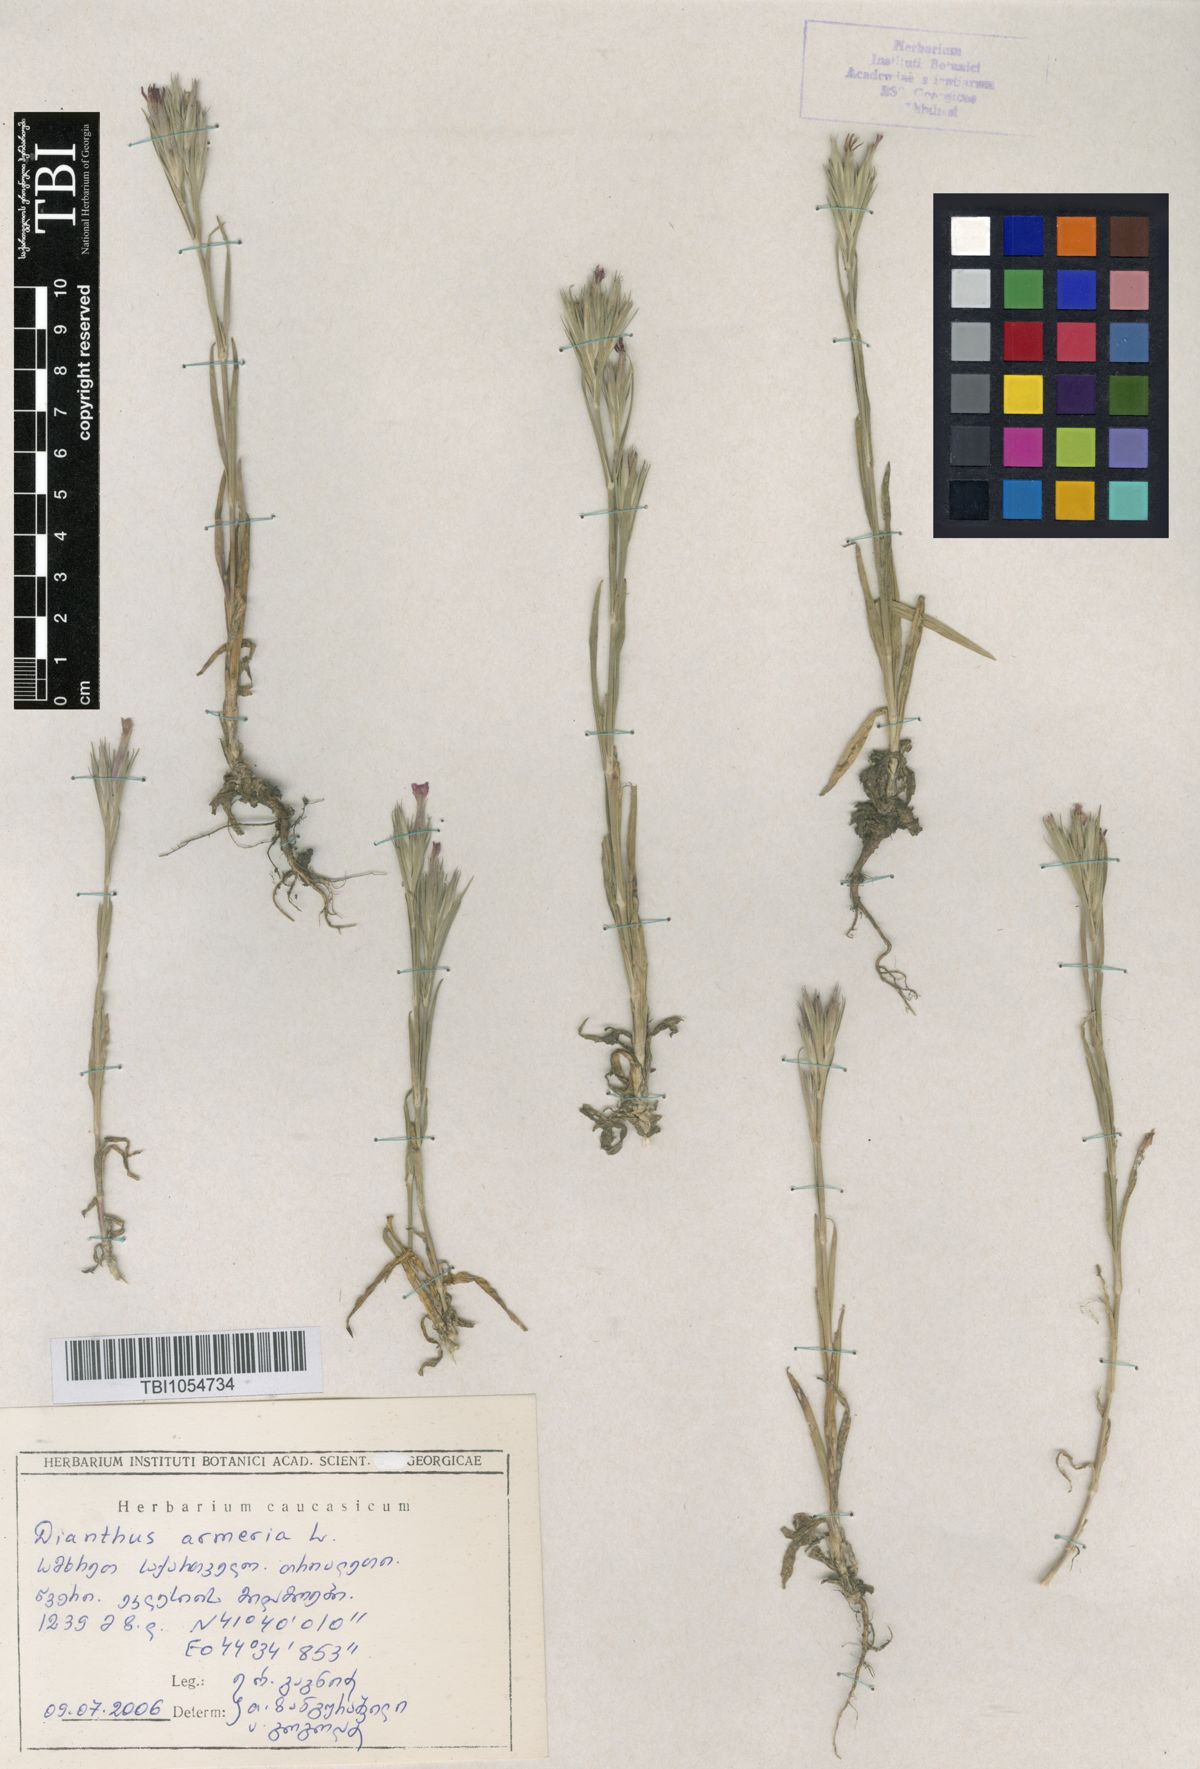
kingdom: Plantae
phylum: Tracheophyta
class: Magnoliopsida
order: Caryophyllales
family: Caryophyllaceae
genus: Dianthus
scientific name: Dianthus armeria
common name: Deptford pink
